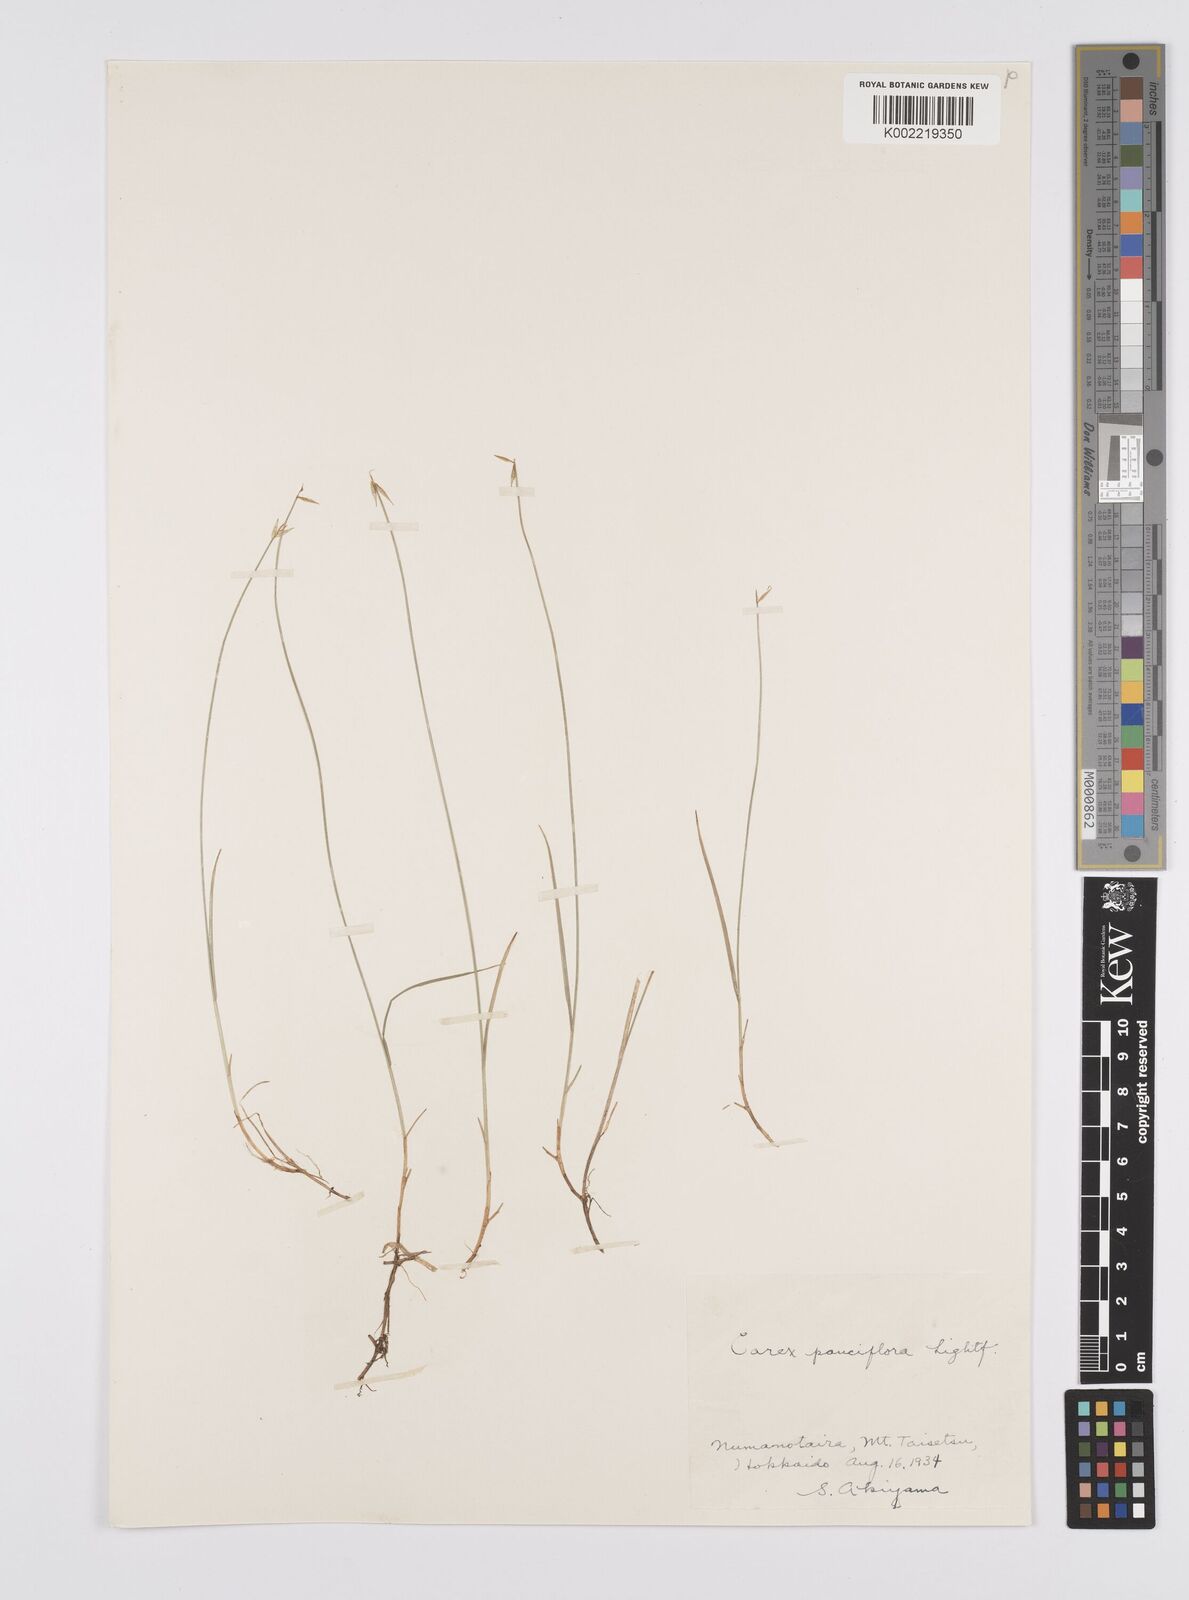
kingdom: Plantae
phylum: Tracheophyta
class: Liliopsida
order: Poales
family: Cyperaceae
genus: Carex
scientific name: Carex pauciflora
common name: Few-flowered sedge
